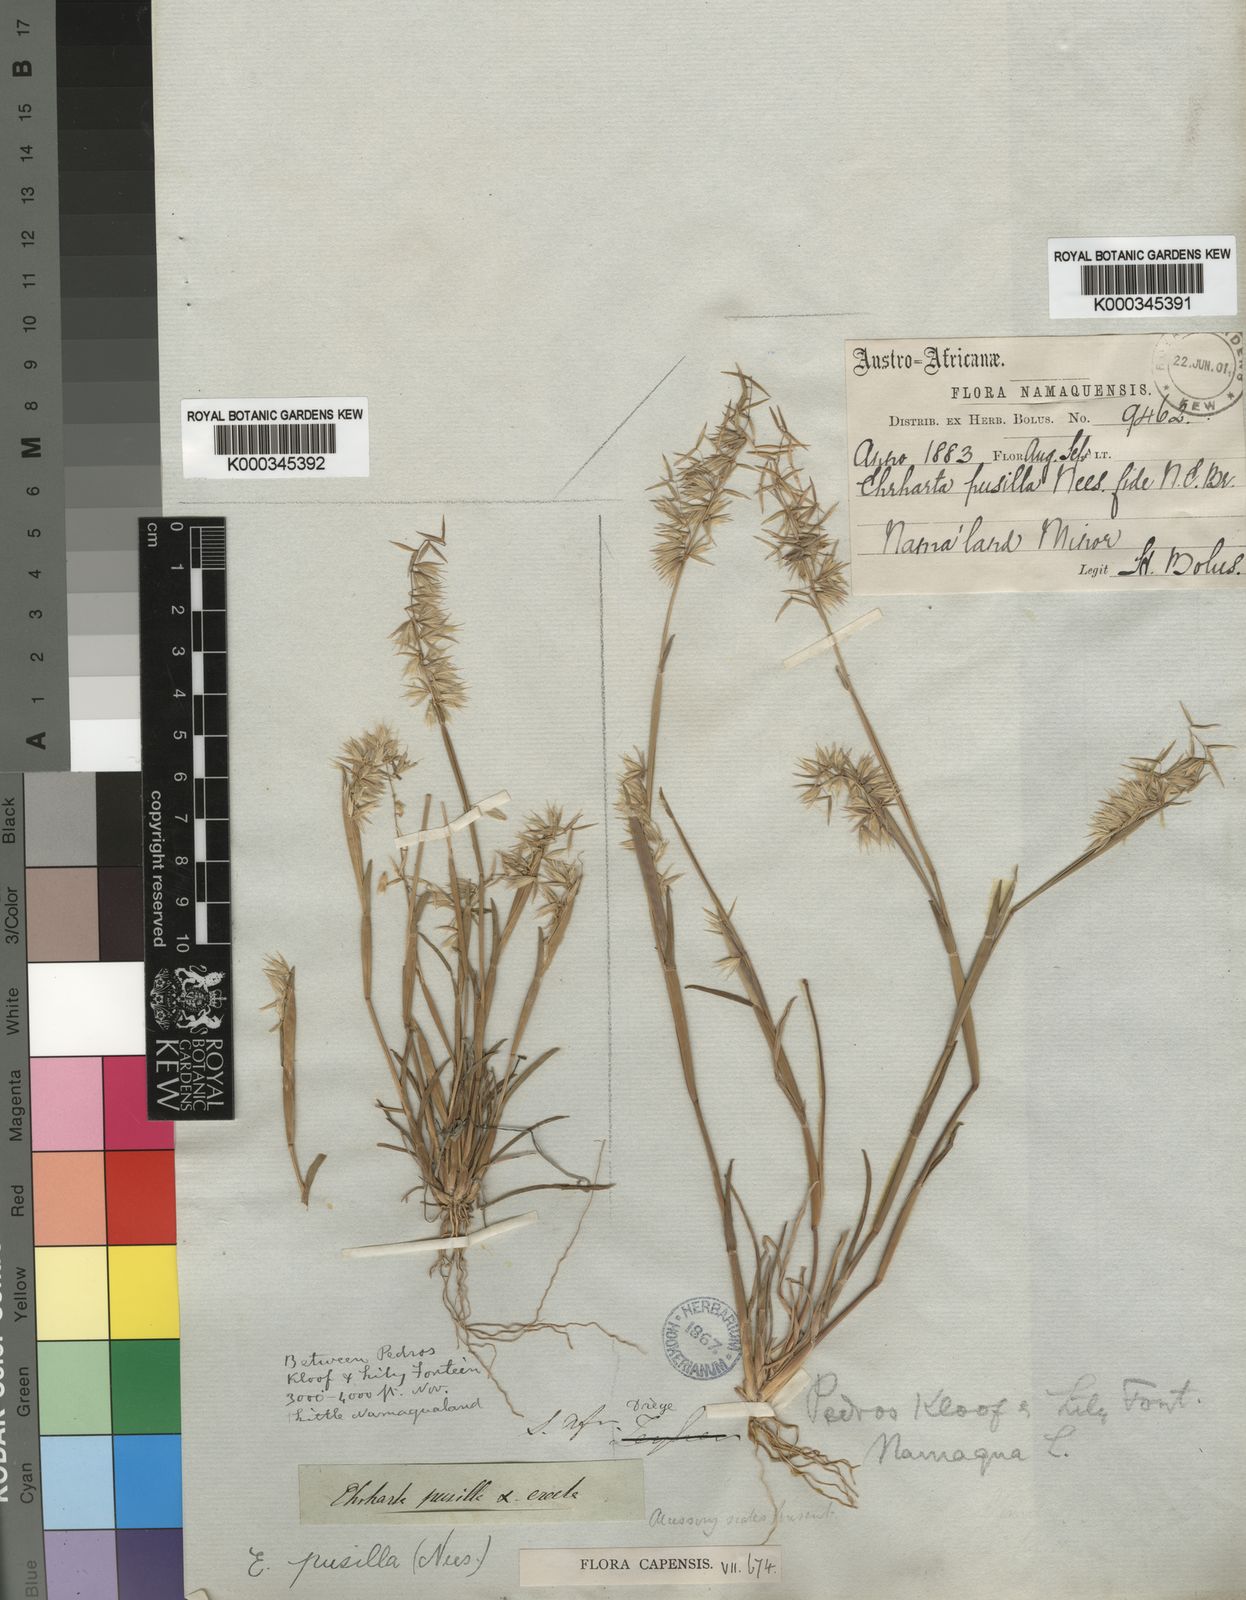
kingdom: Plantae
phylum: Tracheophyta
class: Liliopsida
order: Poales
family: Poaceae
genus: Ehrharta
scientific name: Ehrharta
